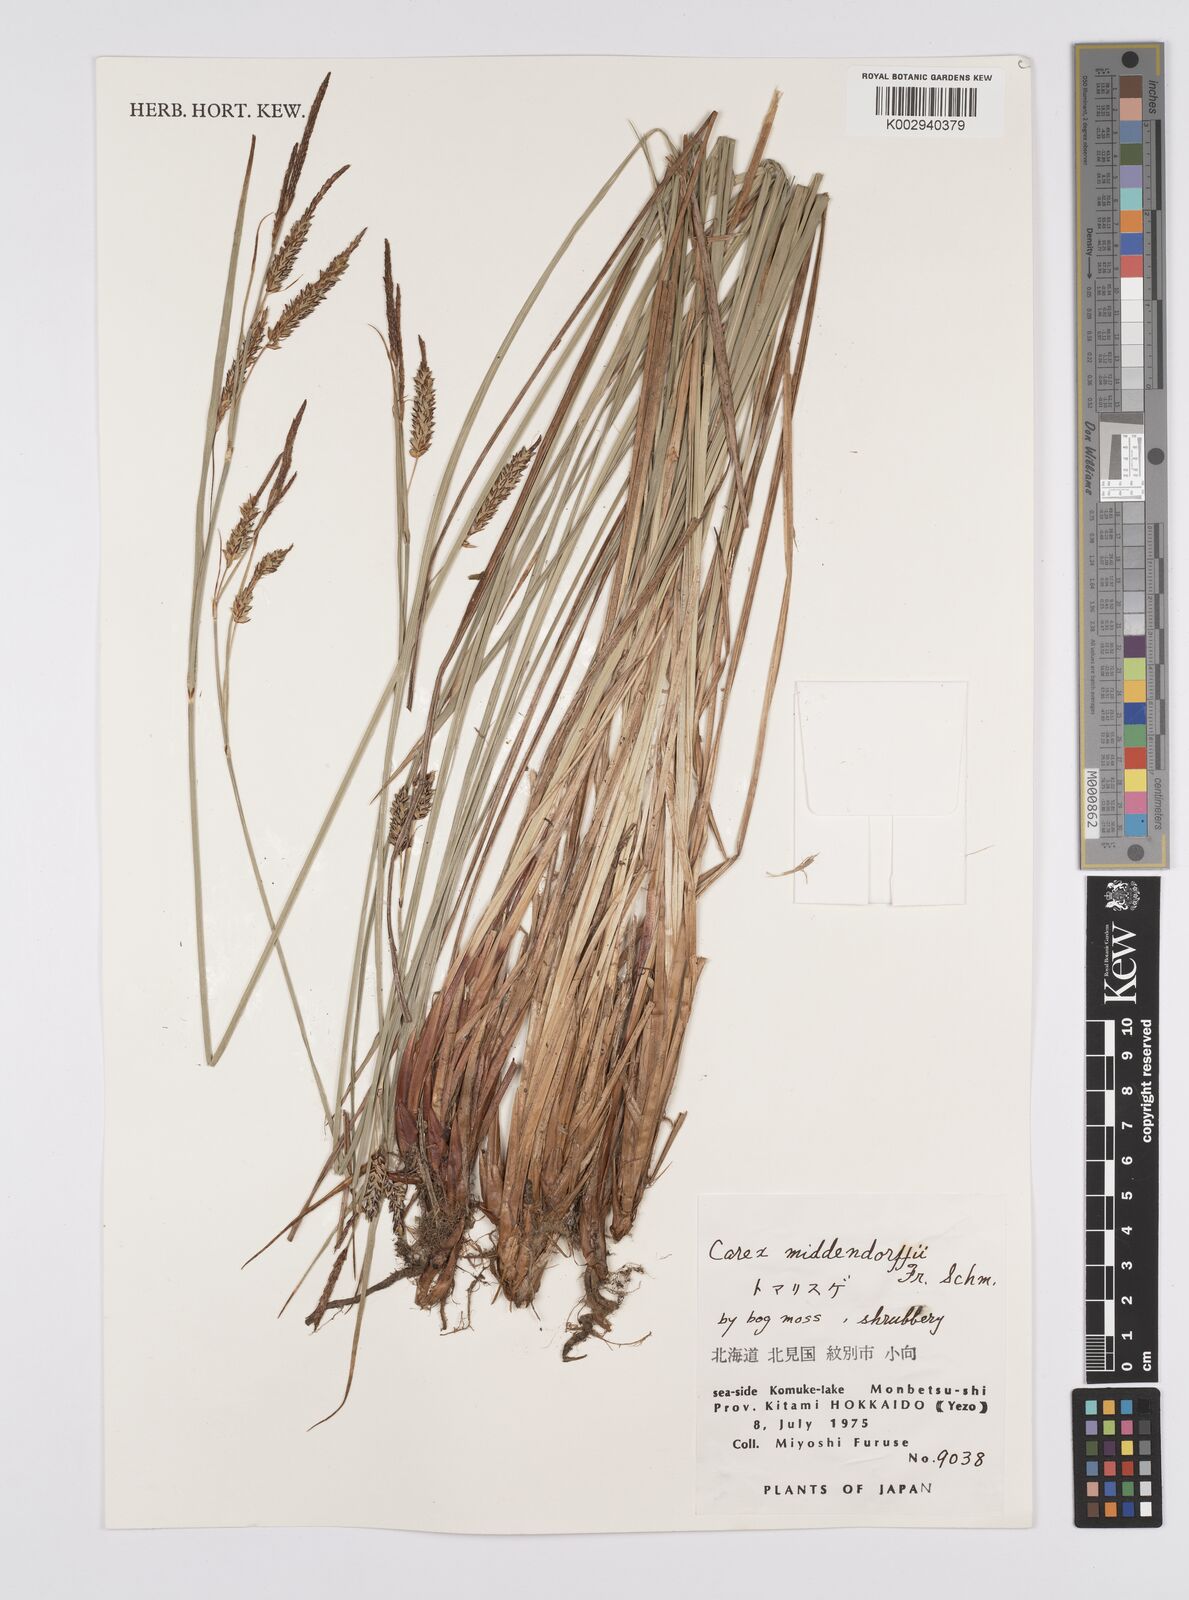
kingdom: Plantae
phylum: Tracheophyta
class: Liliopsida
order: Poales
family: Cyperaceae
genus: Carex
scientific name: Carex middendorffii
